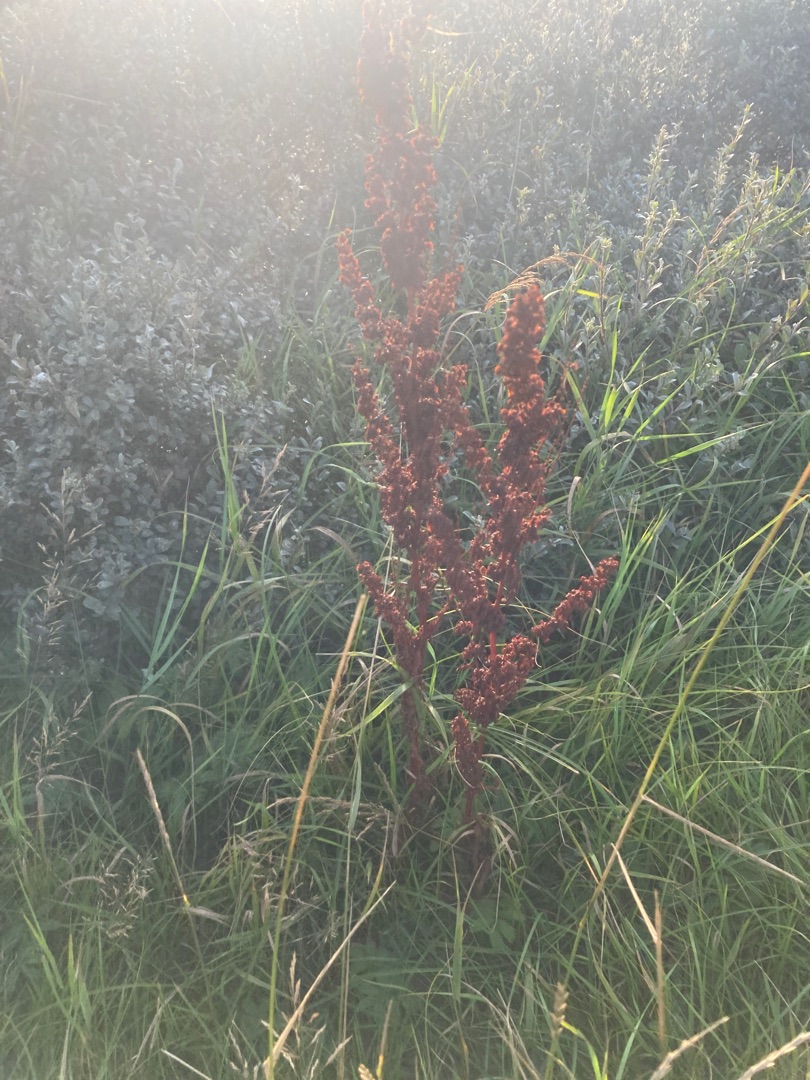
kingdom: Plantae
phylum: Tracheophyta
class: Magnoliopsida
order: Caryophyllales
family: Polygonaceae
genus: Rumex
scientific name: Rumex crispus
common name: Kruset skræppe
